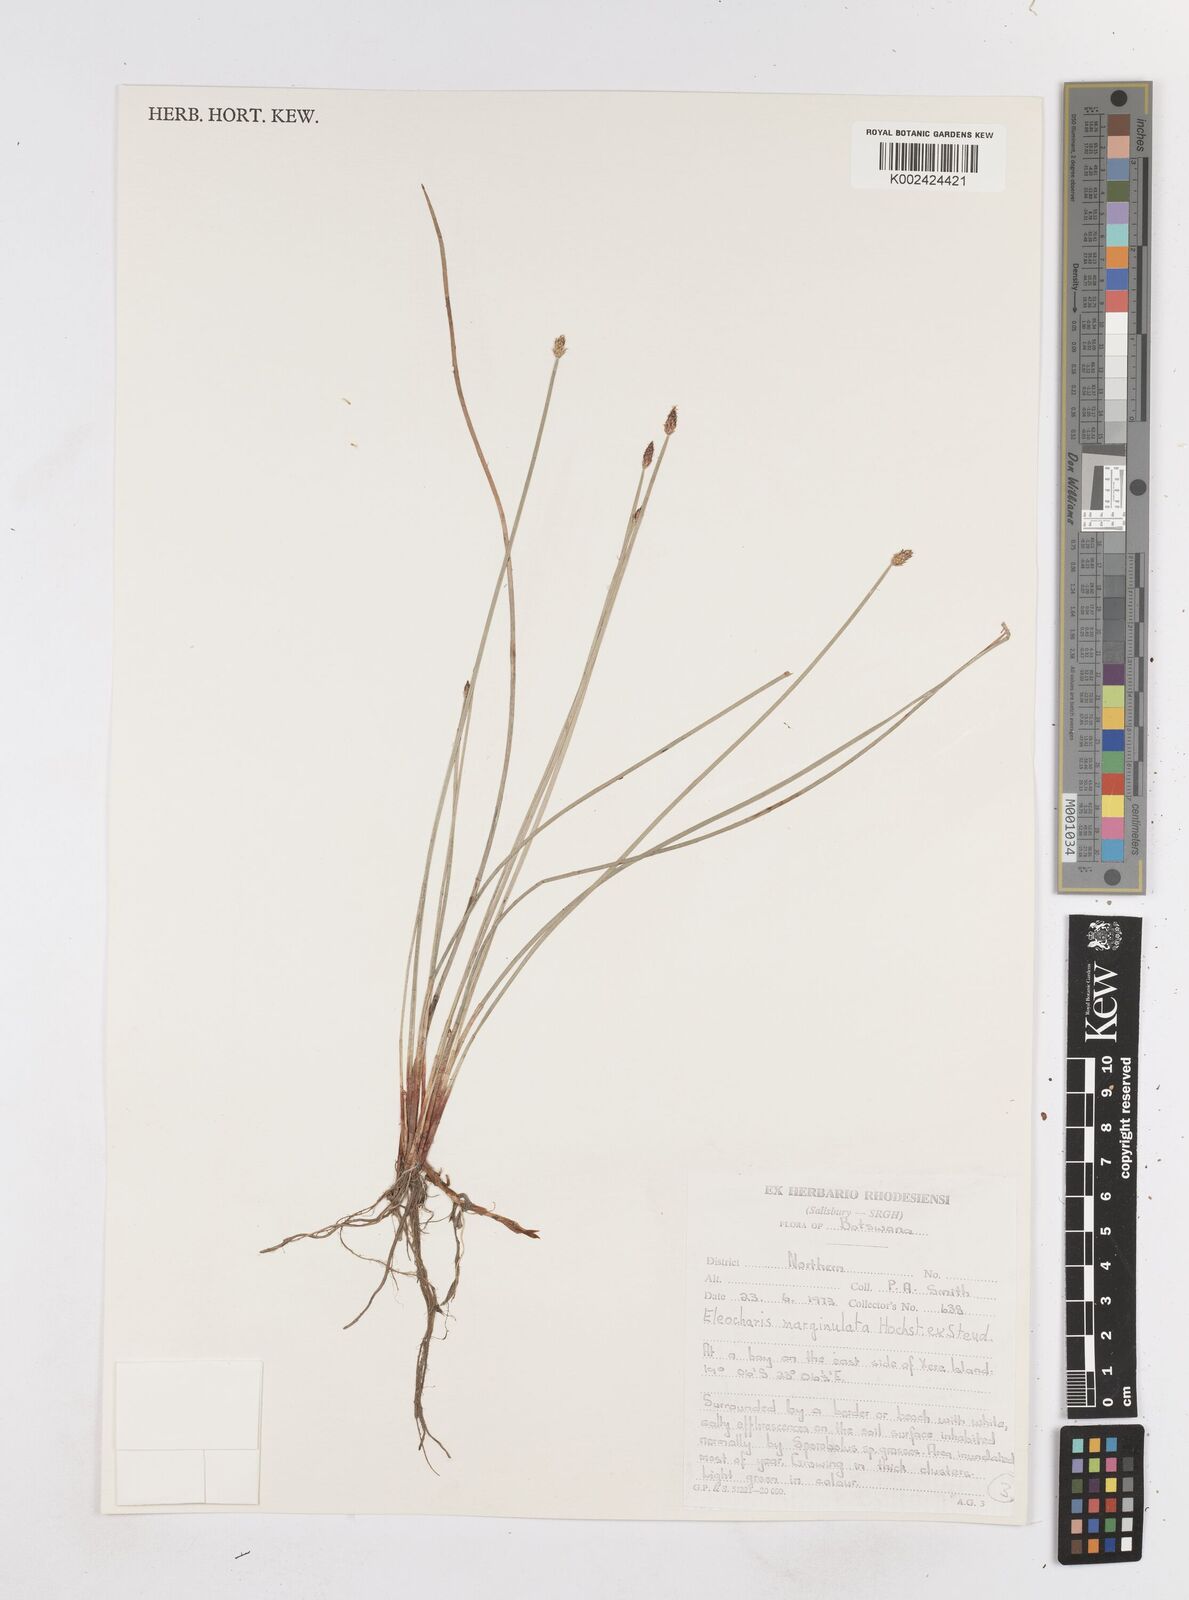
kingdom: Plantae
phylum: Tracheophyta
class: Liliopsida
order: Poales
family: Cyperaceae
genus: Eleocharis
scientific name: Eleocharis marginulata
